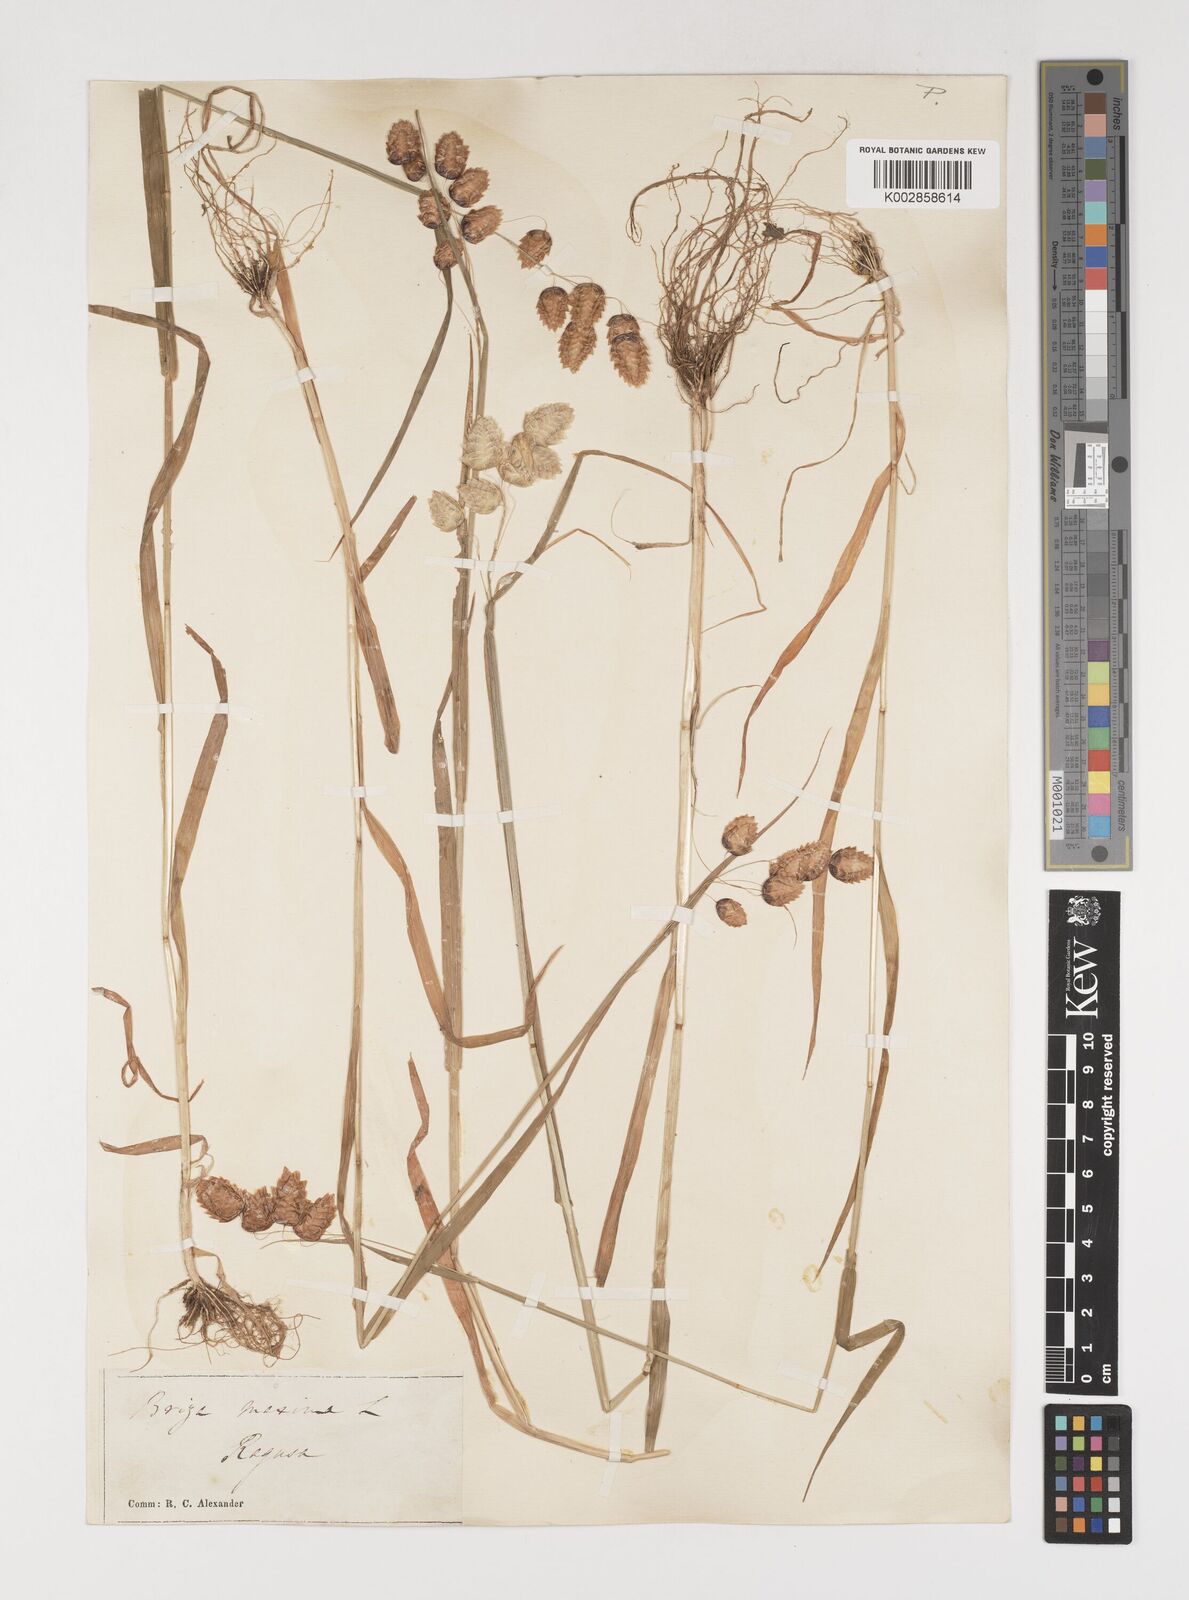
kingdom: Plantae
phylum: Tracheophyta
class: Liliopsida
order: Poales
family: Poaceae
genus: Briza
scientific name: Briza maxima
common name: Big quakinggrass
